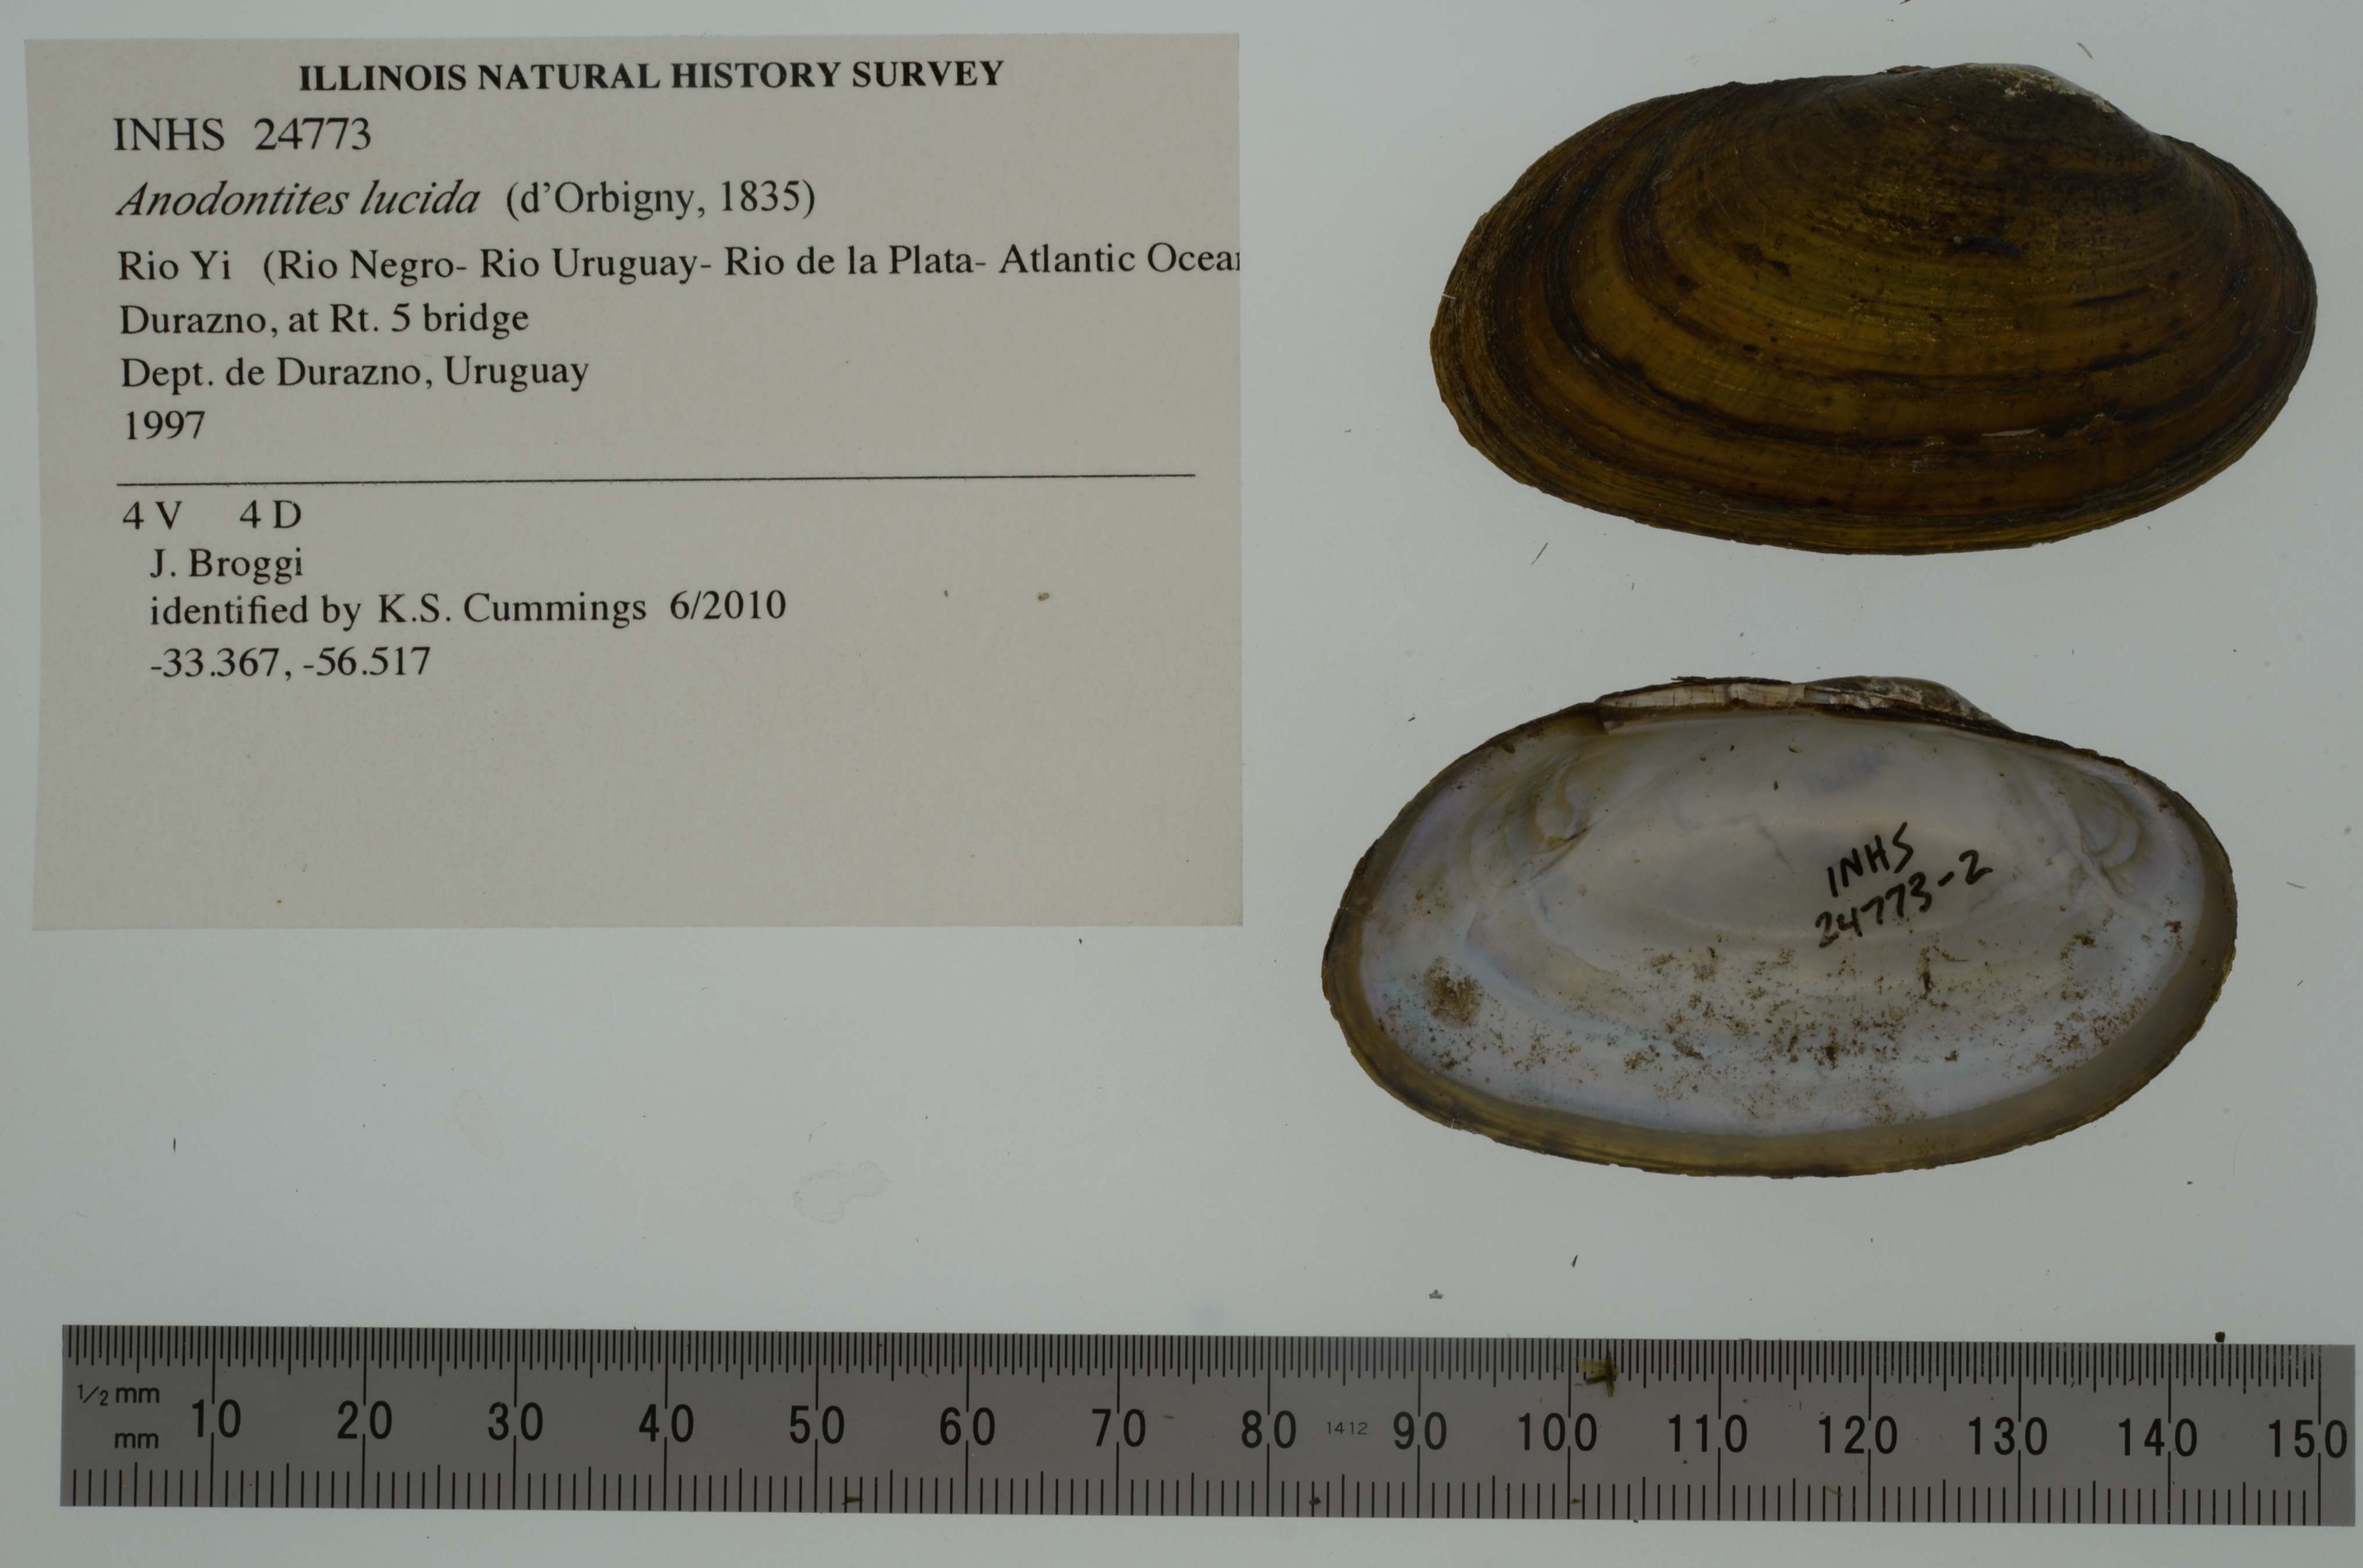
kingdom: Animalia
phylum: Mollusca
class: Bivalvia
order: Unionida
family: Mycetopodidae
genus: Anodontites
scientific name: Anodontites lucida
